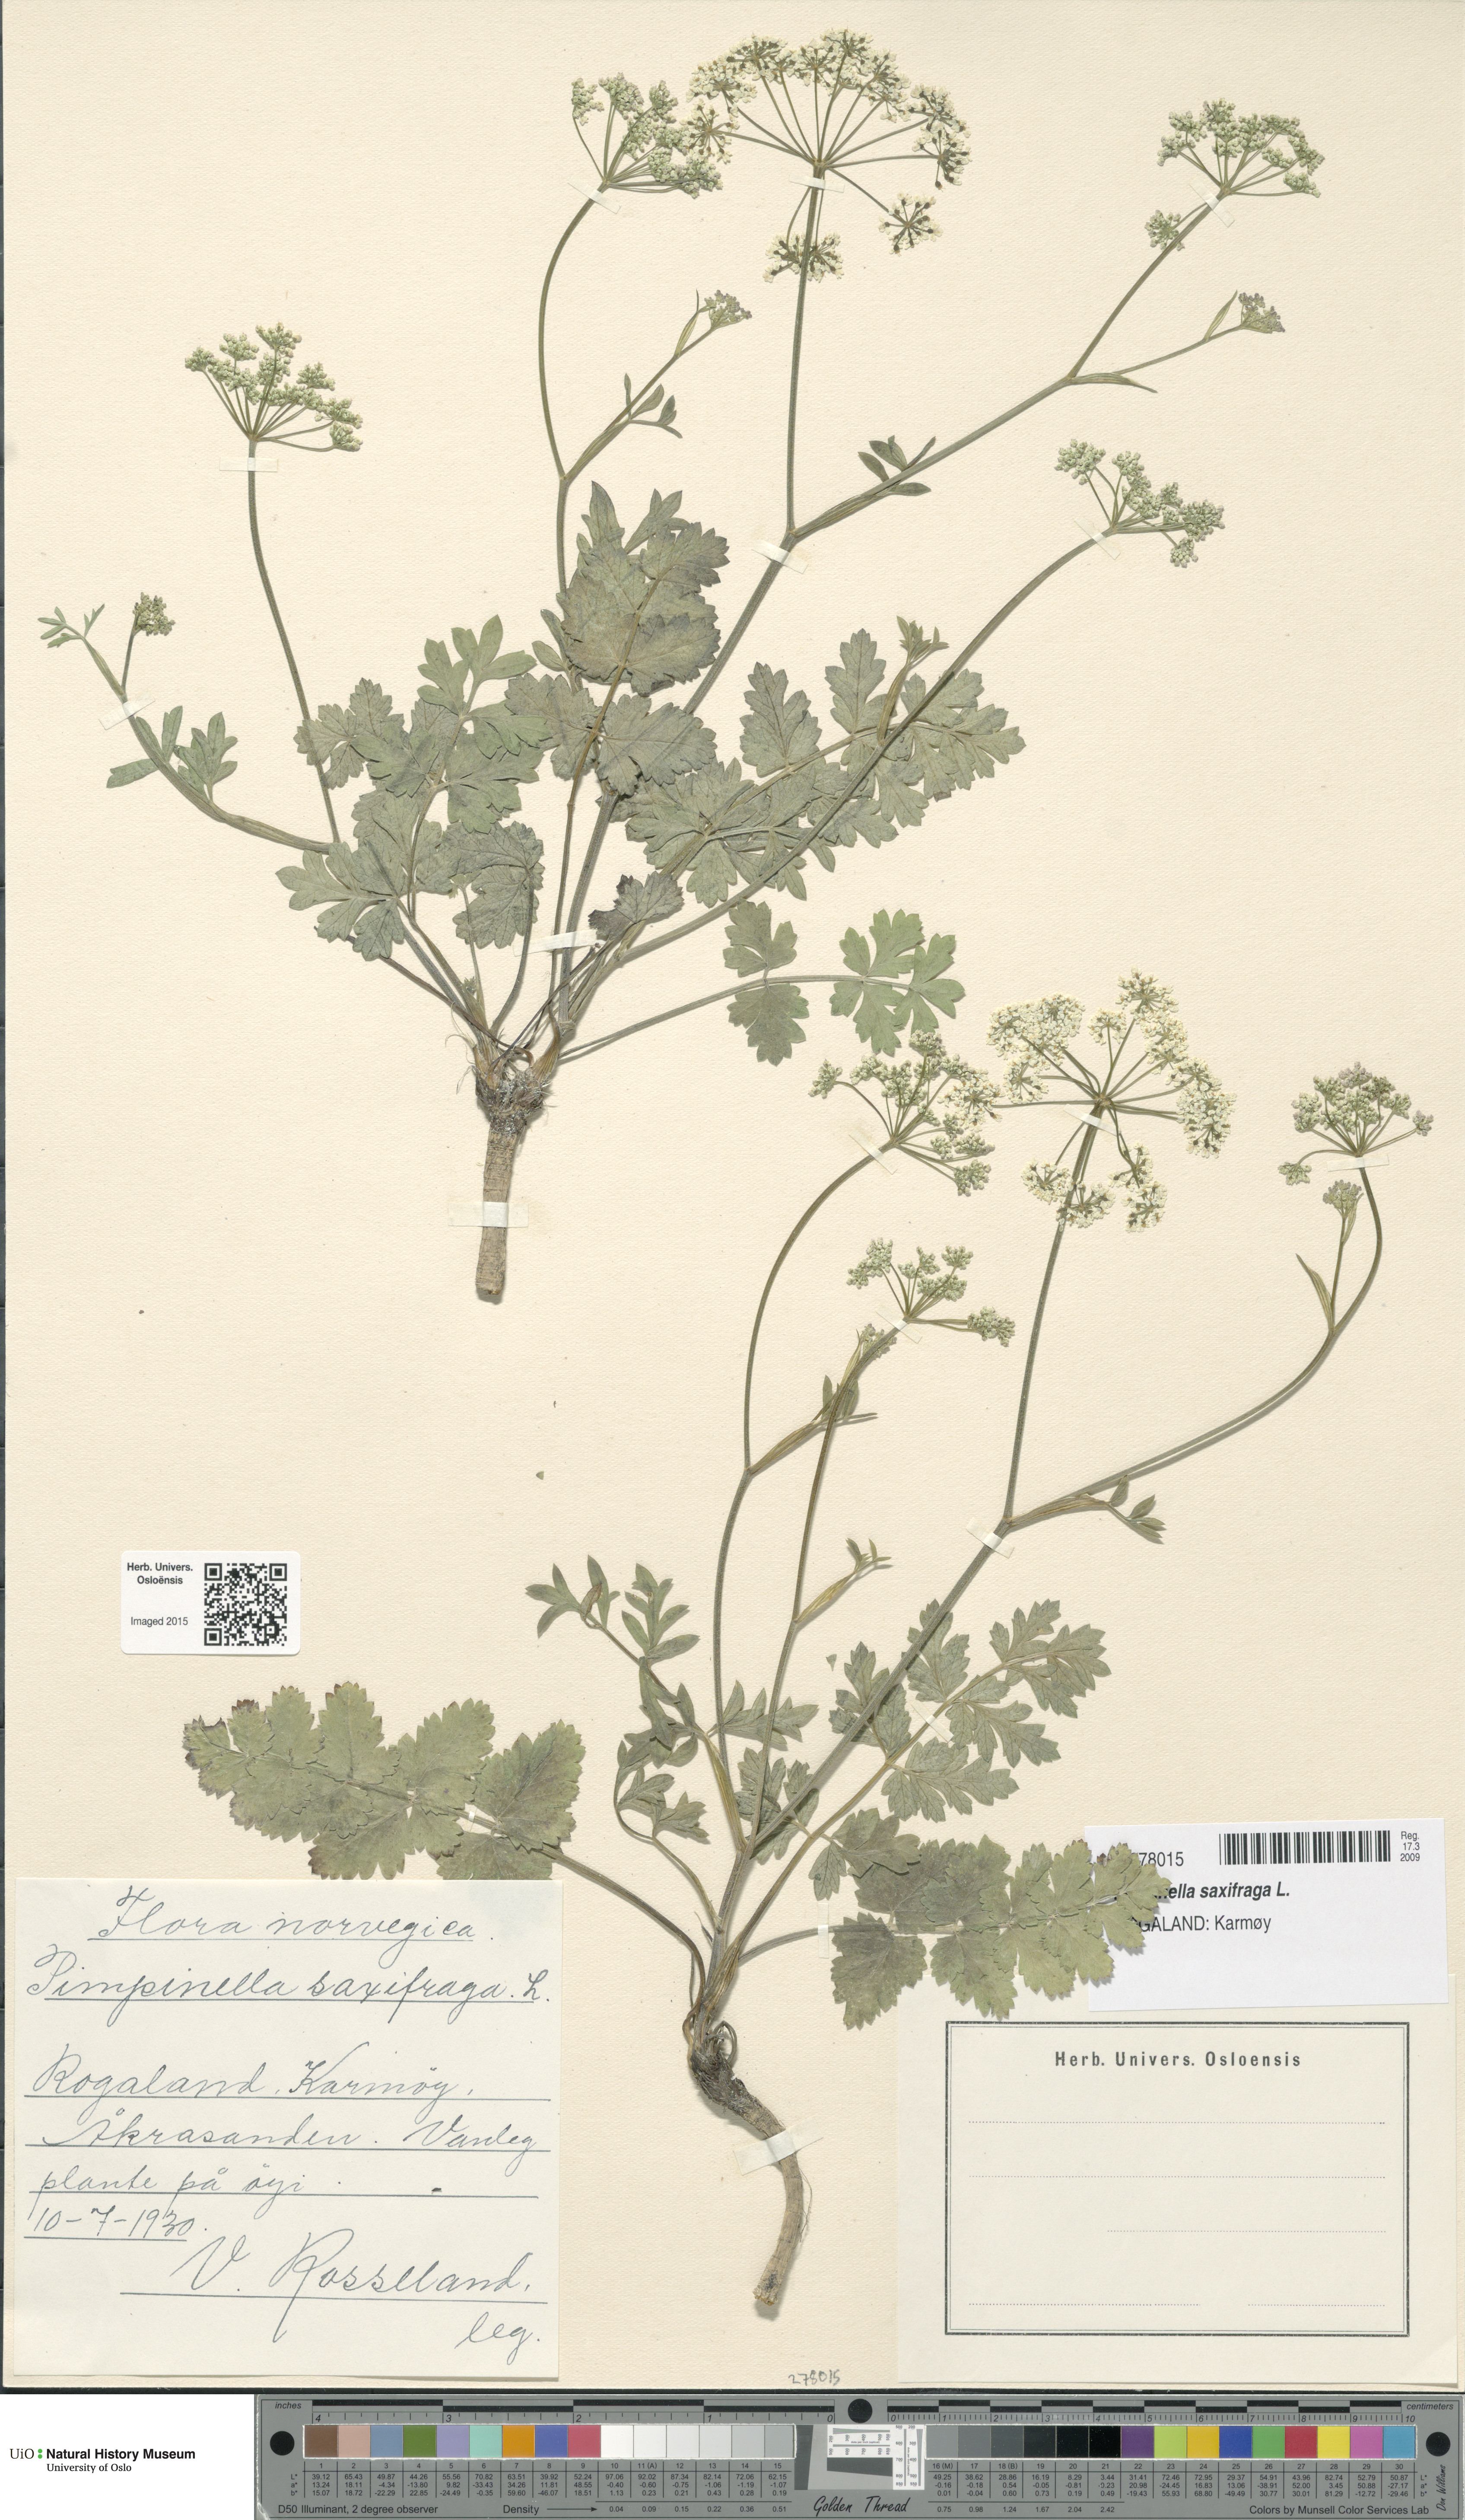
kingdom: Plantae
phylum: Tracheophyta
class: Magnoliopsida
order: Apiales
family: Apiaceae
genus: Pimpinella
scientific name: Pimpinella saxifraga
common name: Burnet-saxifrage
